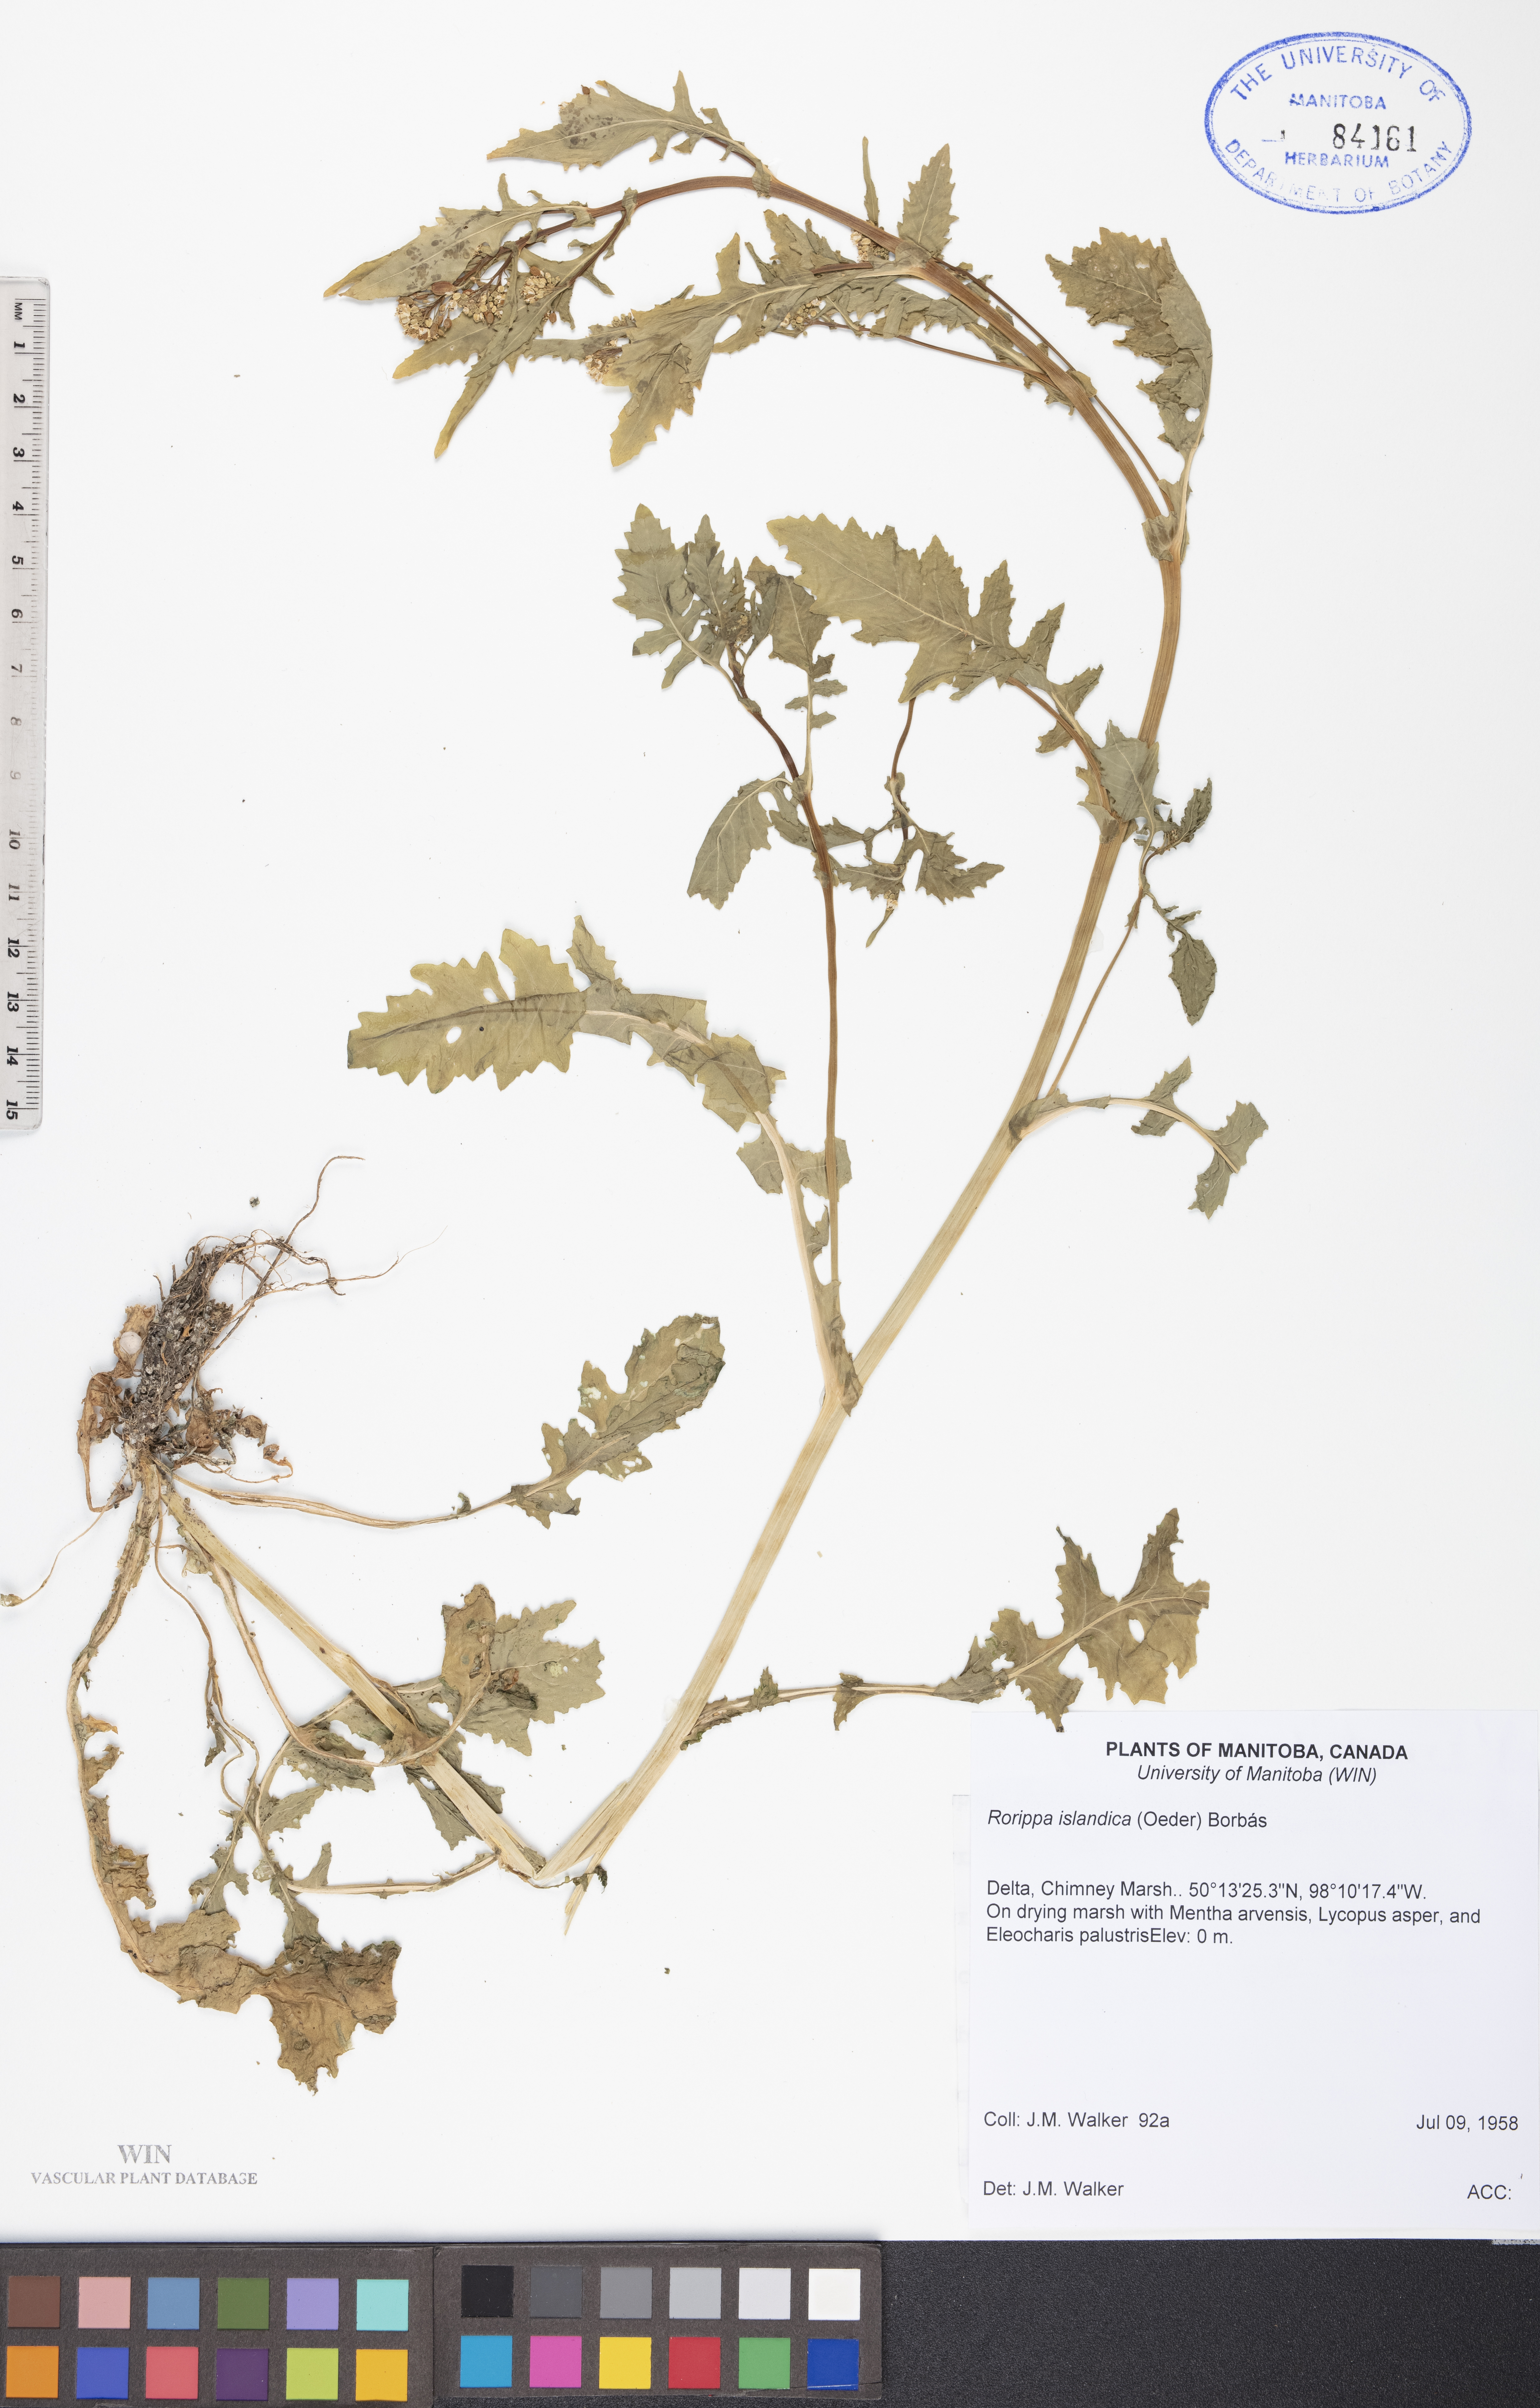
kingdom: Plantae
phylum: Tracheophyta
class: Magnoliopsida
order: Brassicales
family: Brassicaceae
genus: Rorippa
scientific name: Rorippa islandica
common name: Marsh cress
